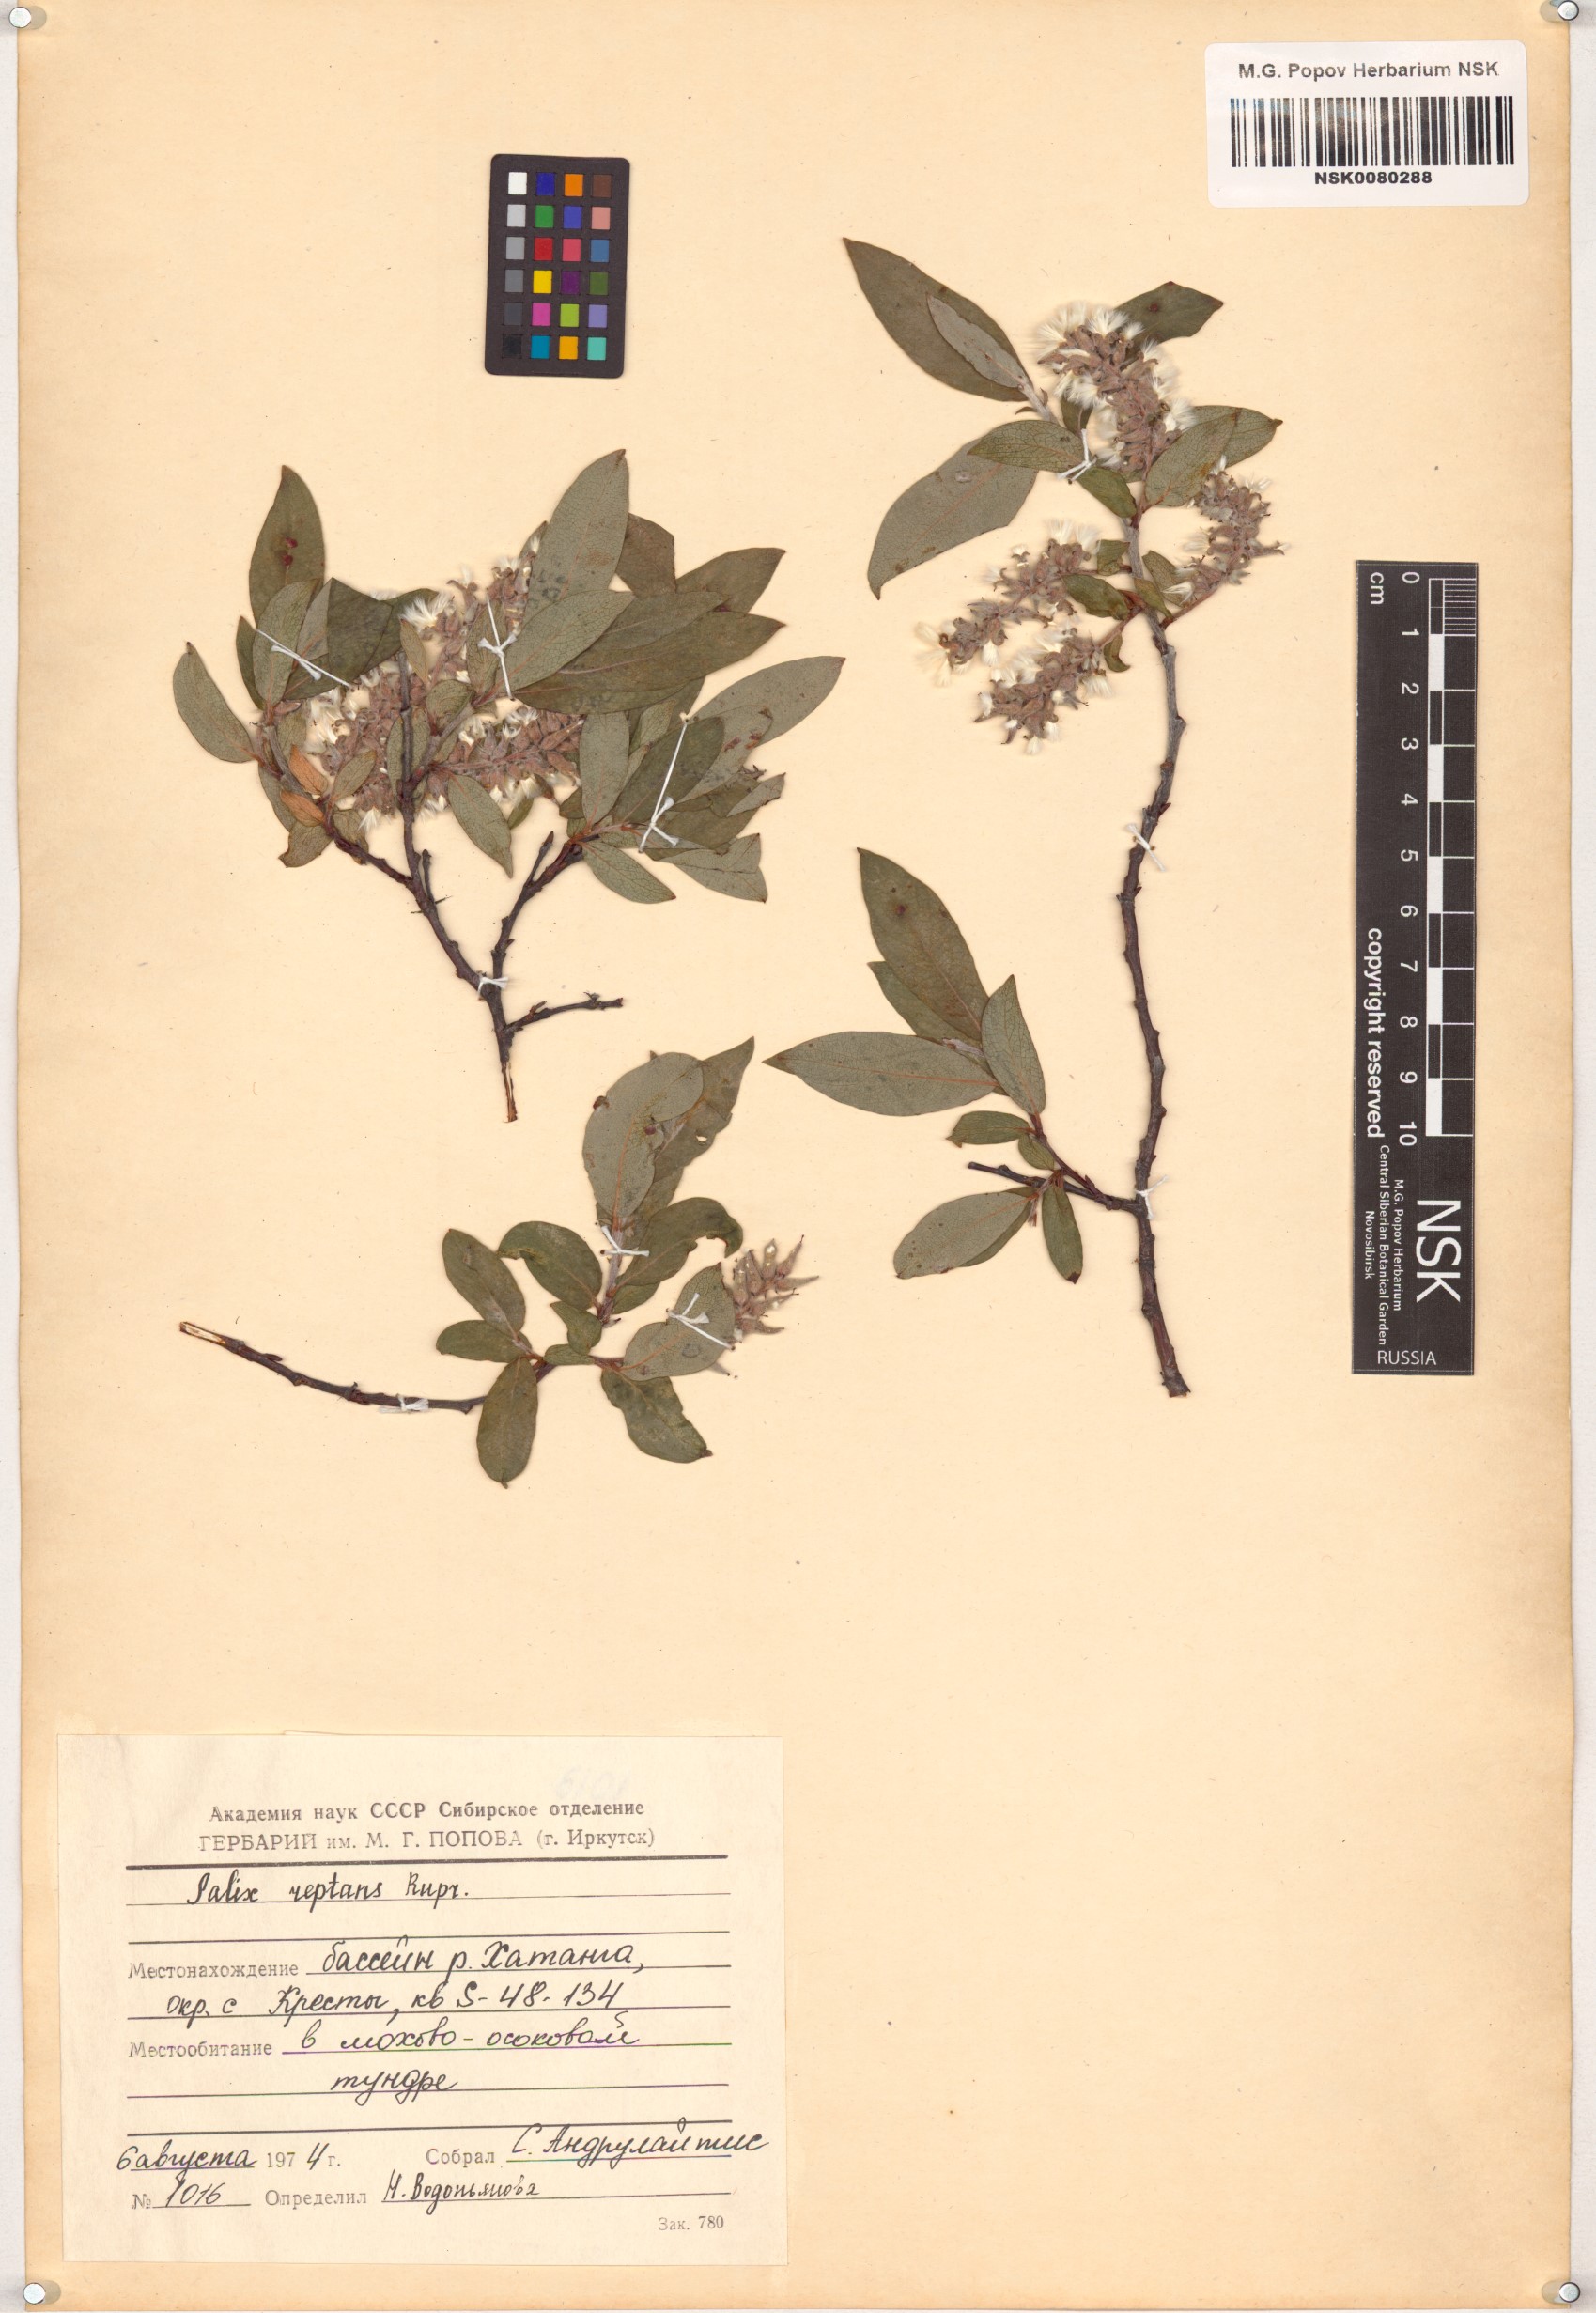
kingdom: Plantae
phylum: Tracheophyta
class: Magnoliopsida
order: Malpighiales
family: Salicaceae
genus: Salix
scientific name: Salix reptans
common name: Arctic creeping willow
